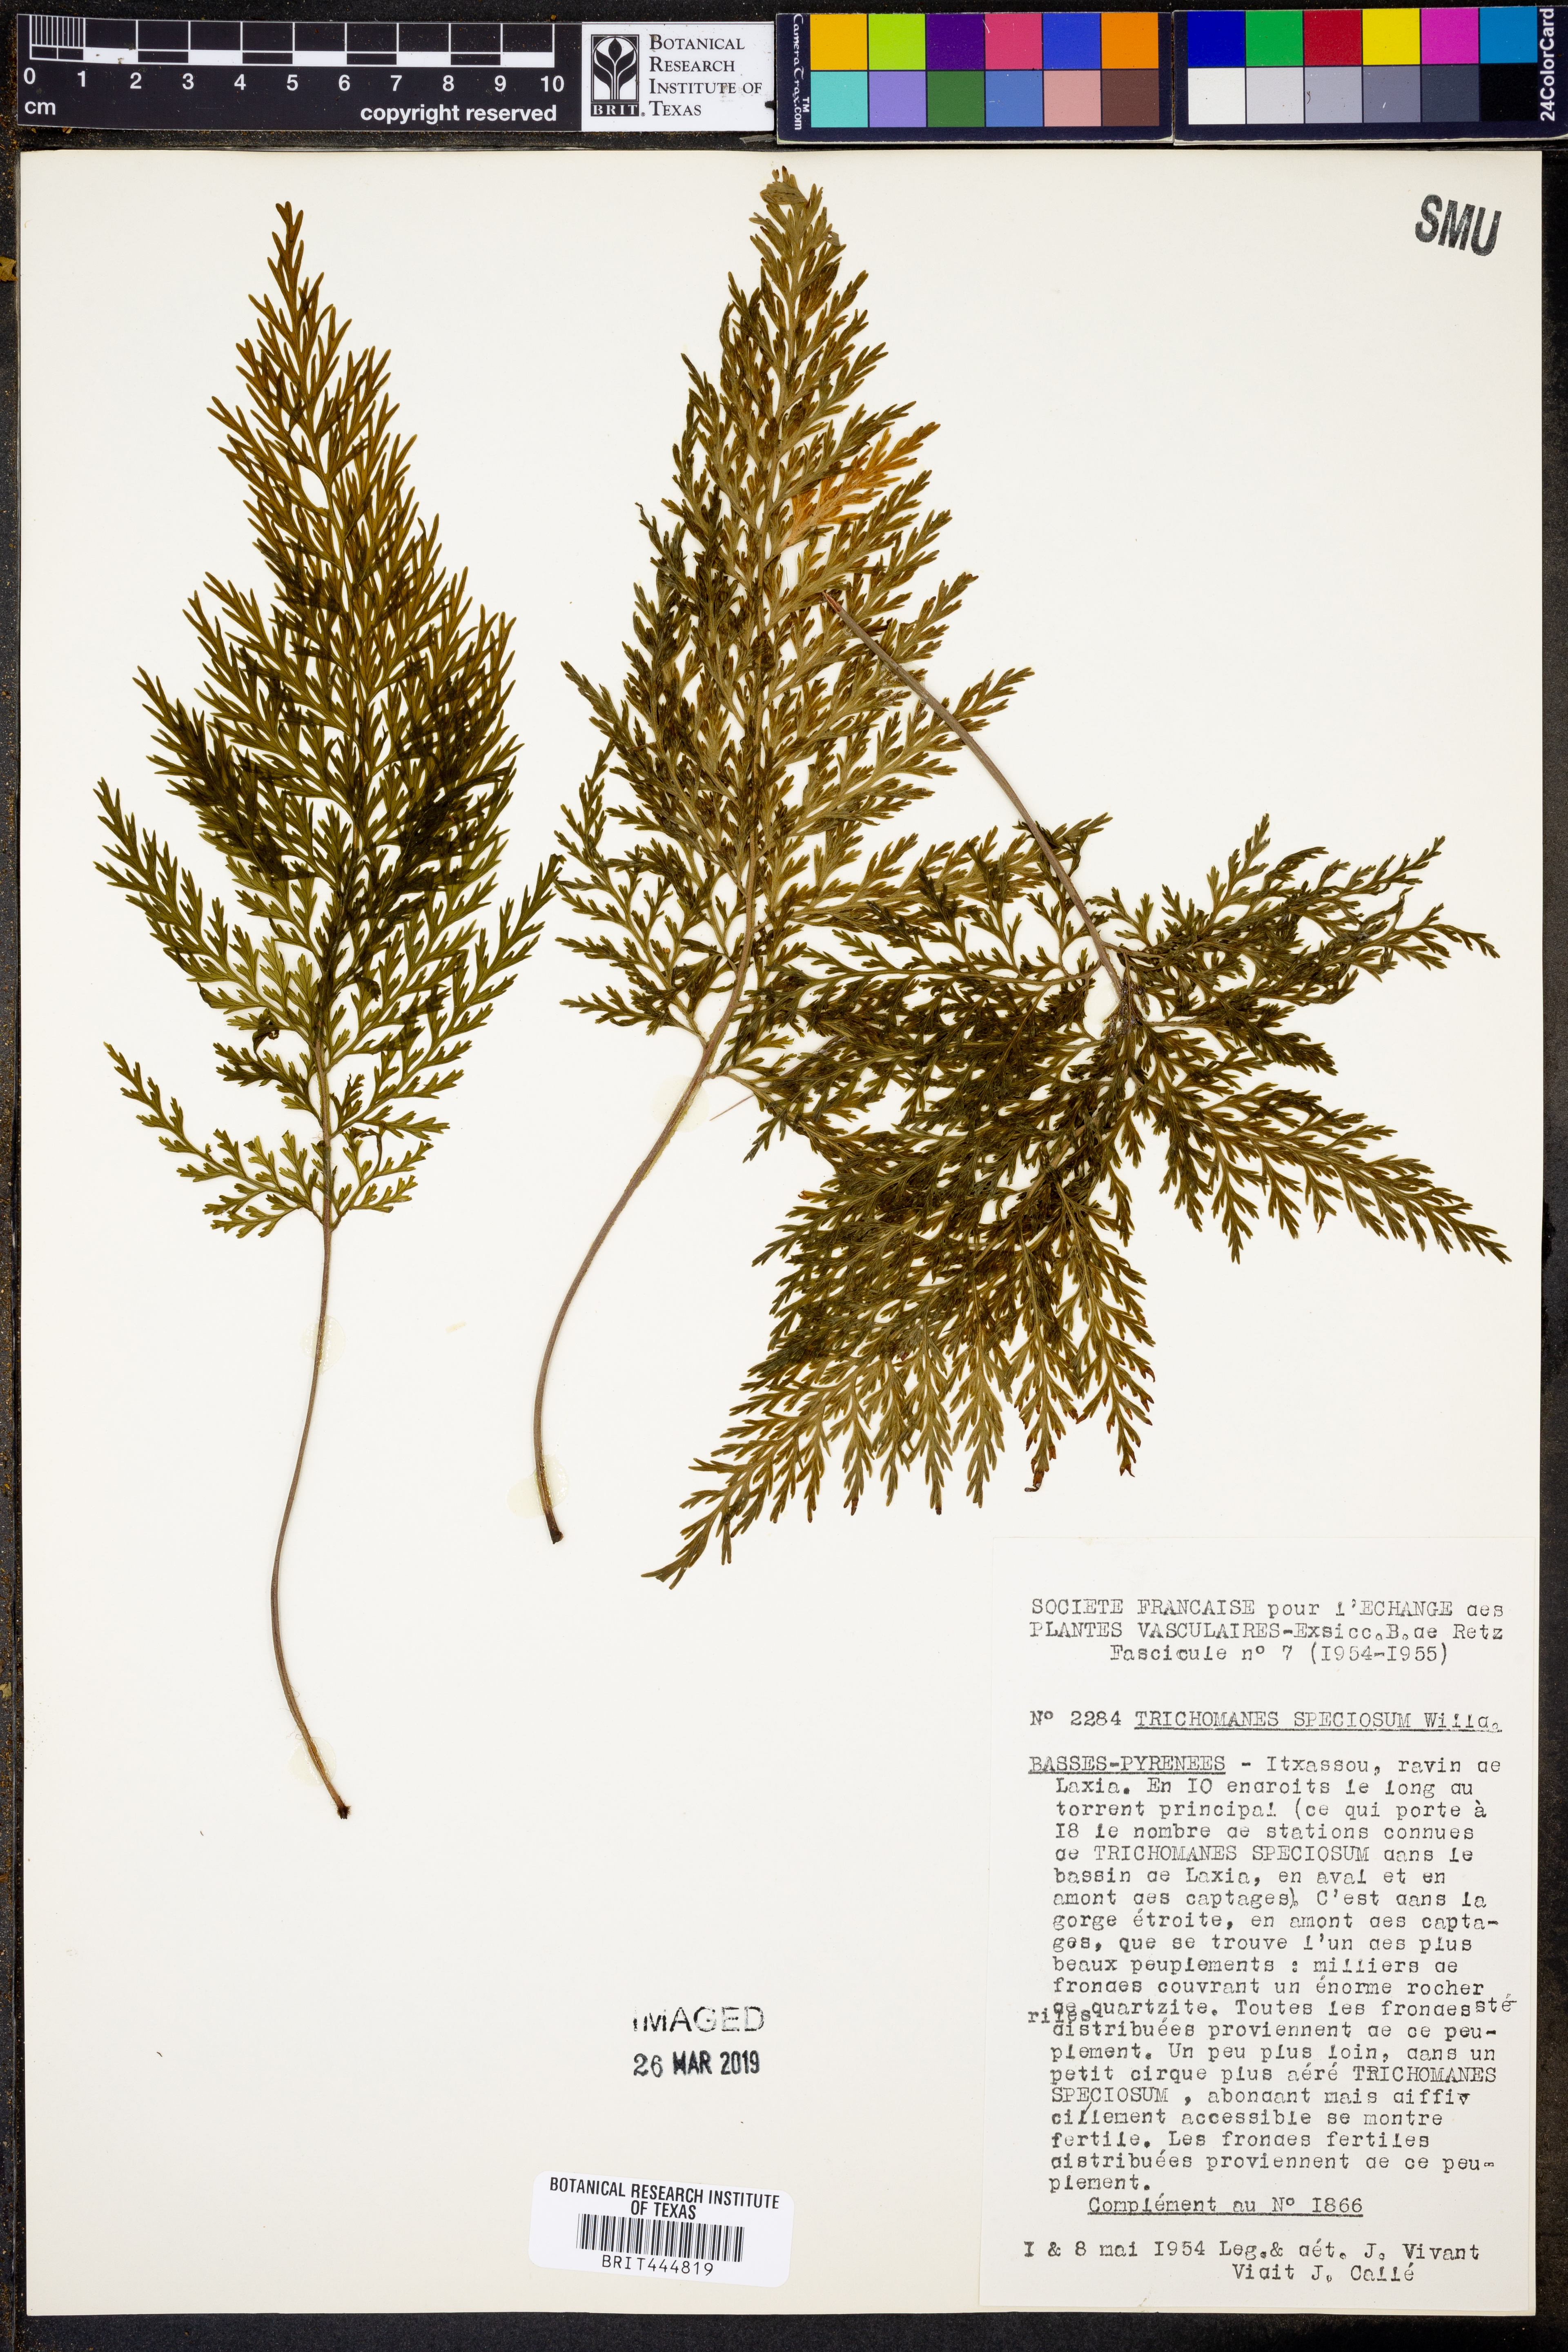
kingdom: Plantae
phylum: Tracheophyta
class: Polypodiopsida
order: Hymenophyllales
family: Hymenophyllaceae
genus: Vandenboschia
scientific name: Vandenboschia speciosa
